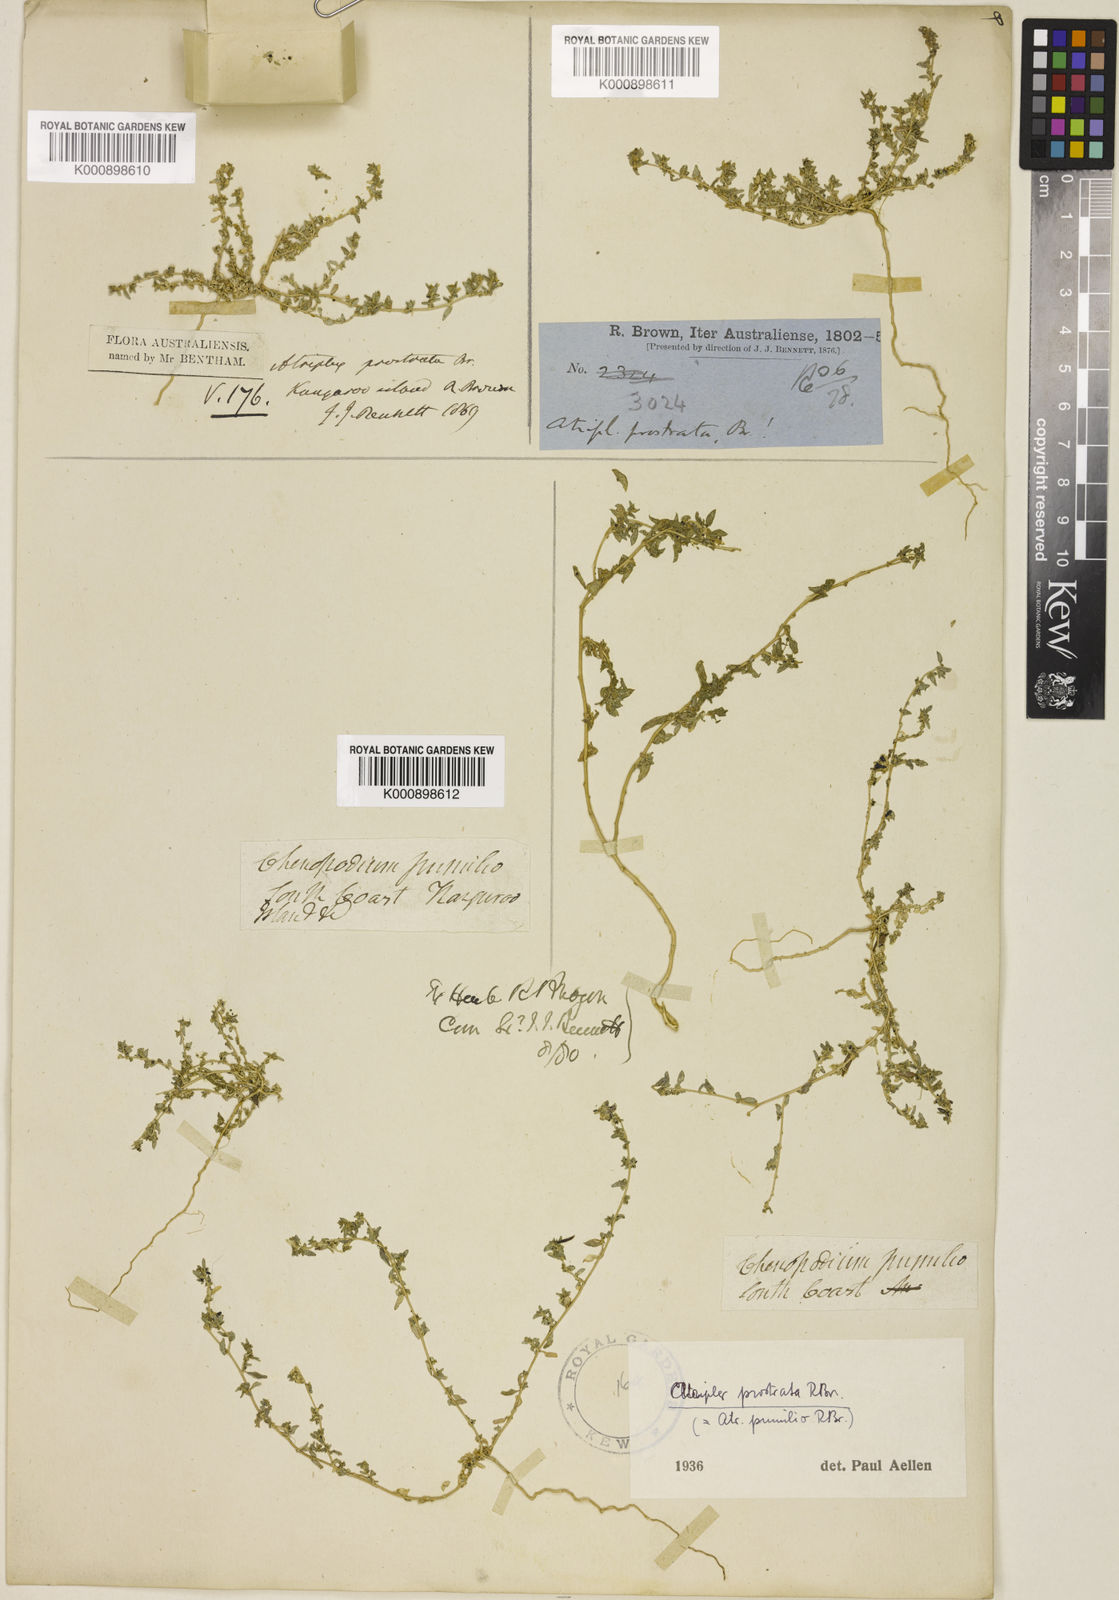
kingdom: Plantae
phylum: Tracheophyta
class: Magnoliopsida
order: Caryophyllales
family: Amaranthaceae
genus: Atriplex
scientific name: Atriplex pumilio
